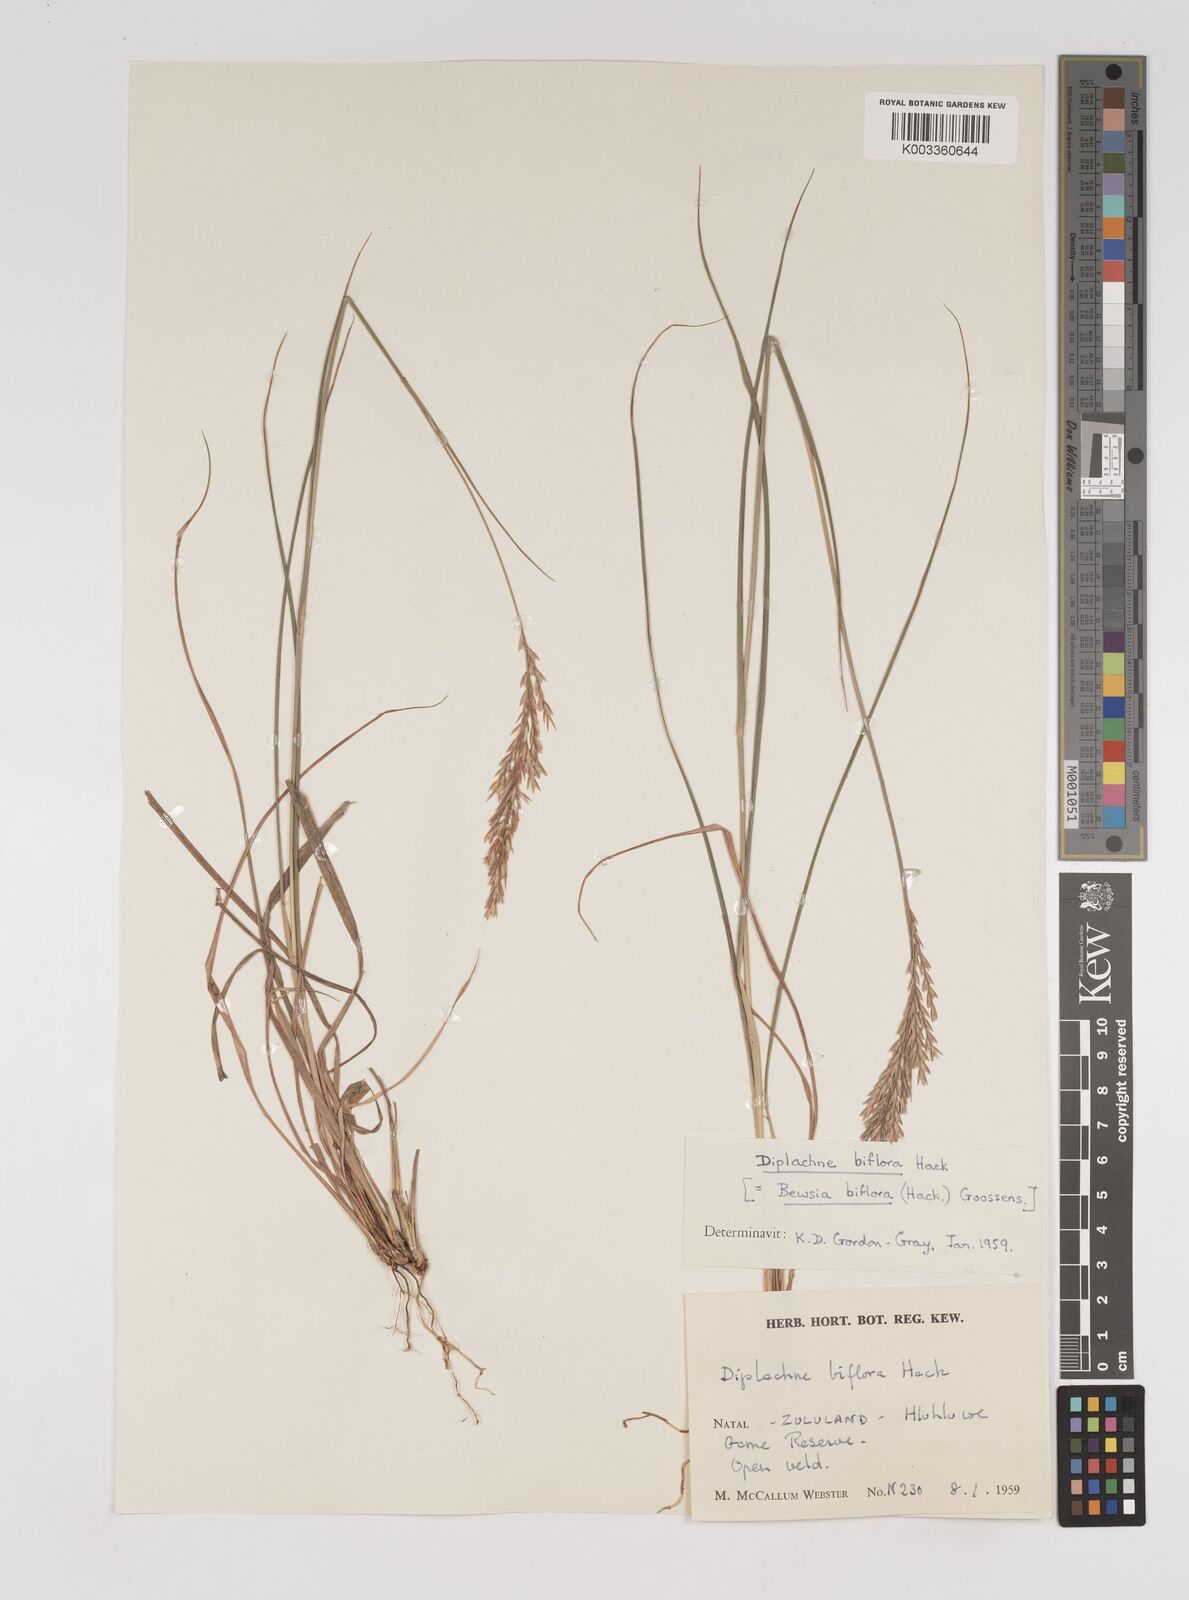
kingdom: Plantae
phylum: Tracheophyta
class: Liliopsida
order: Poales
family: Poaceae
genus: Bewsia
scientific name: Bewsia biflora
